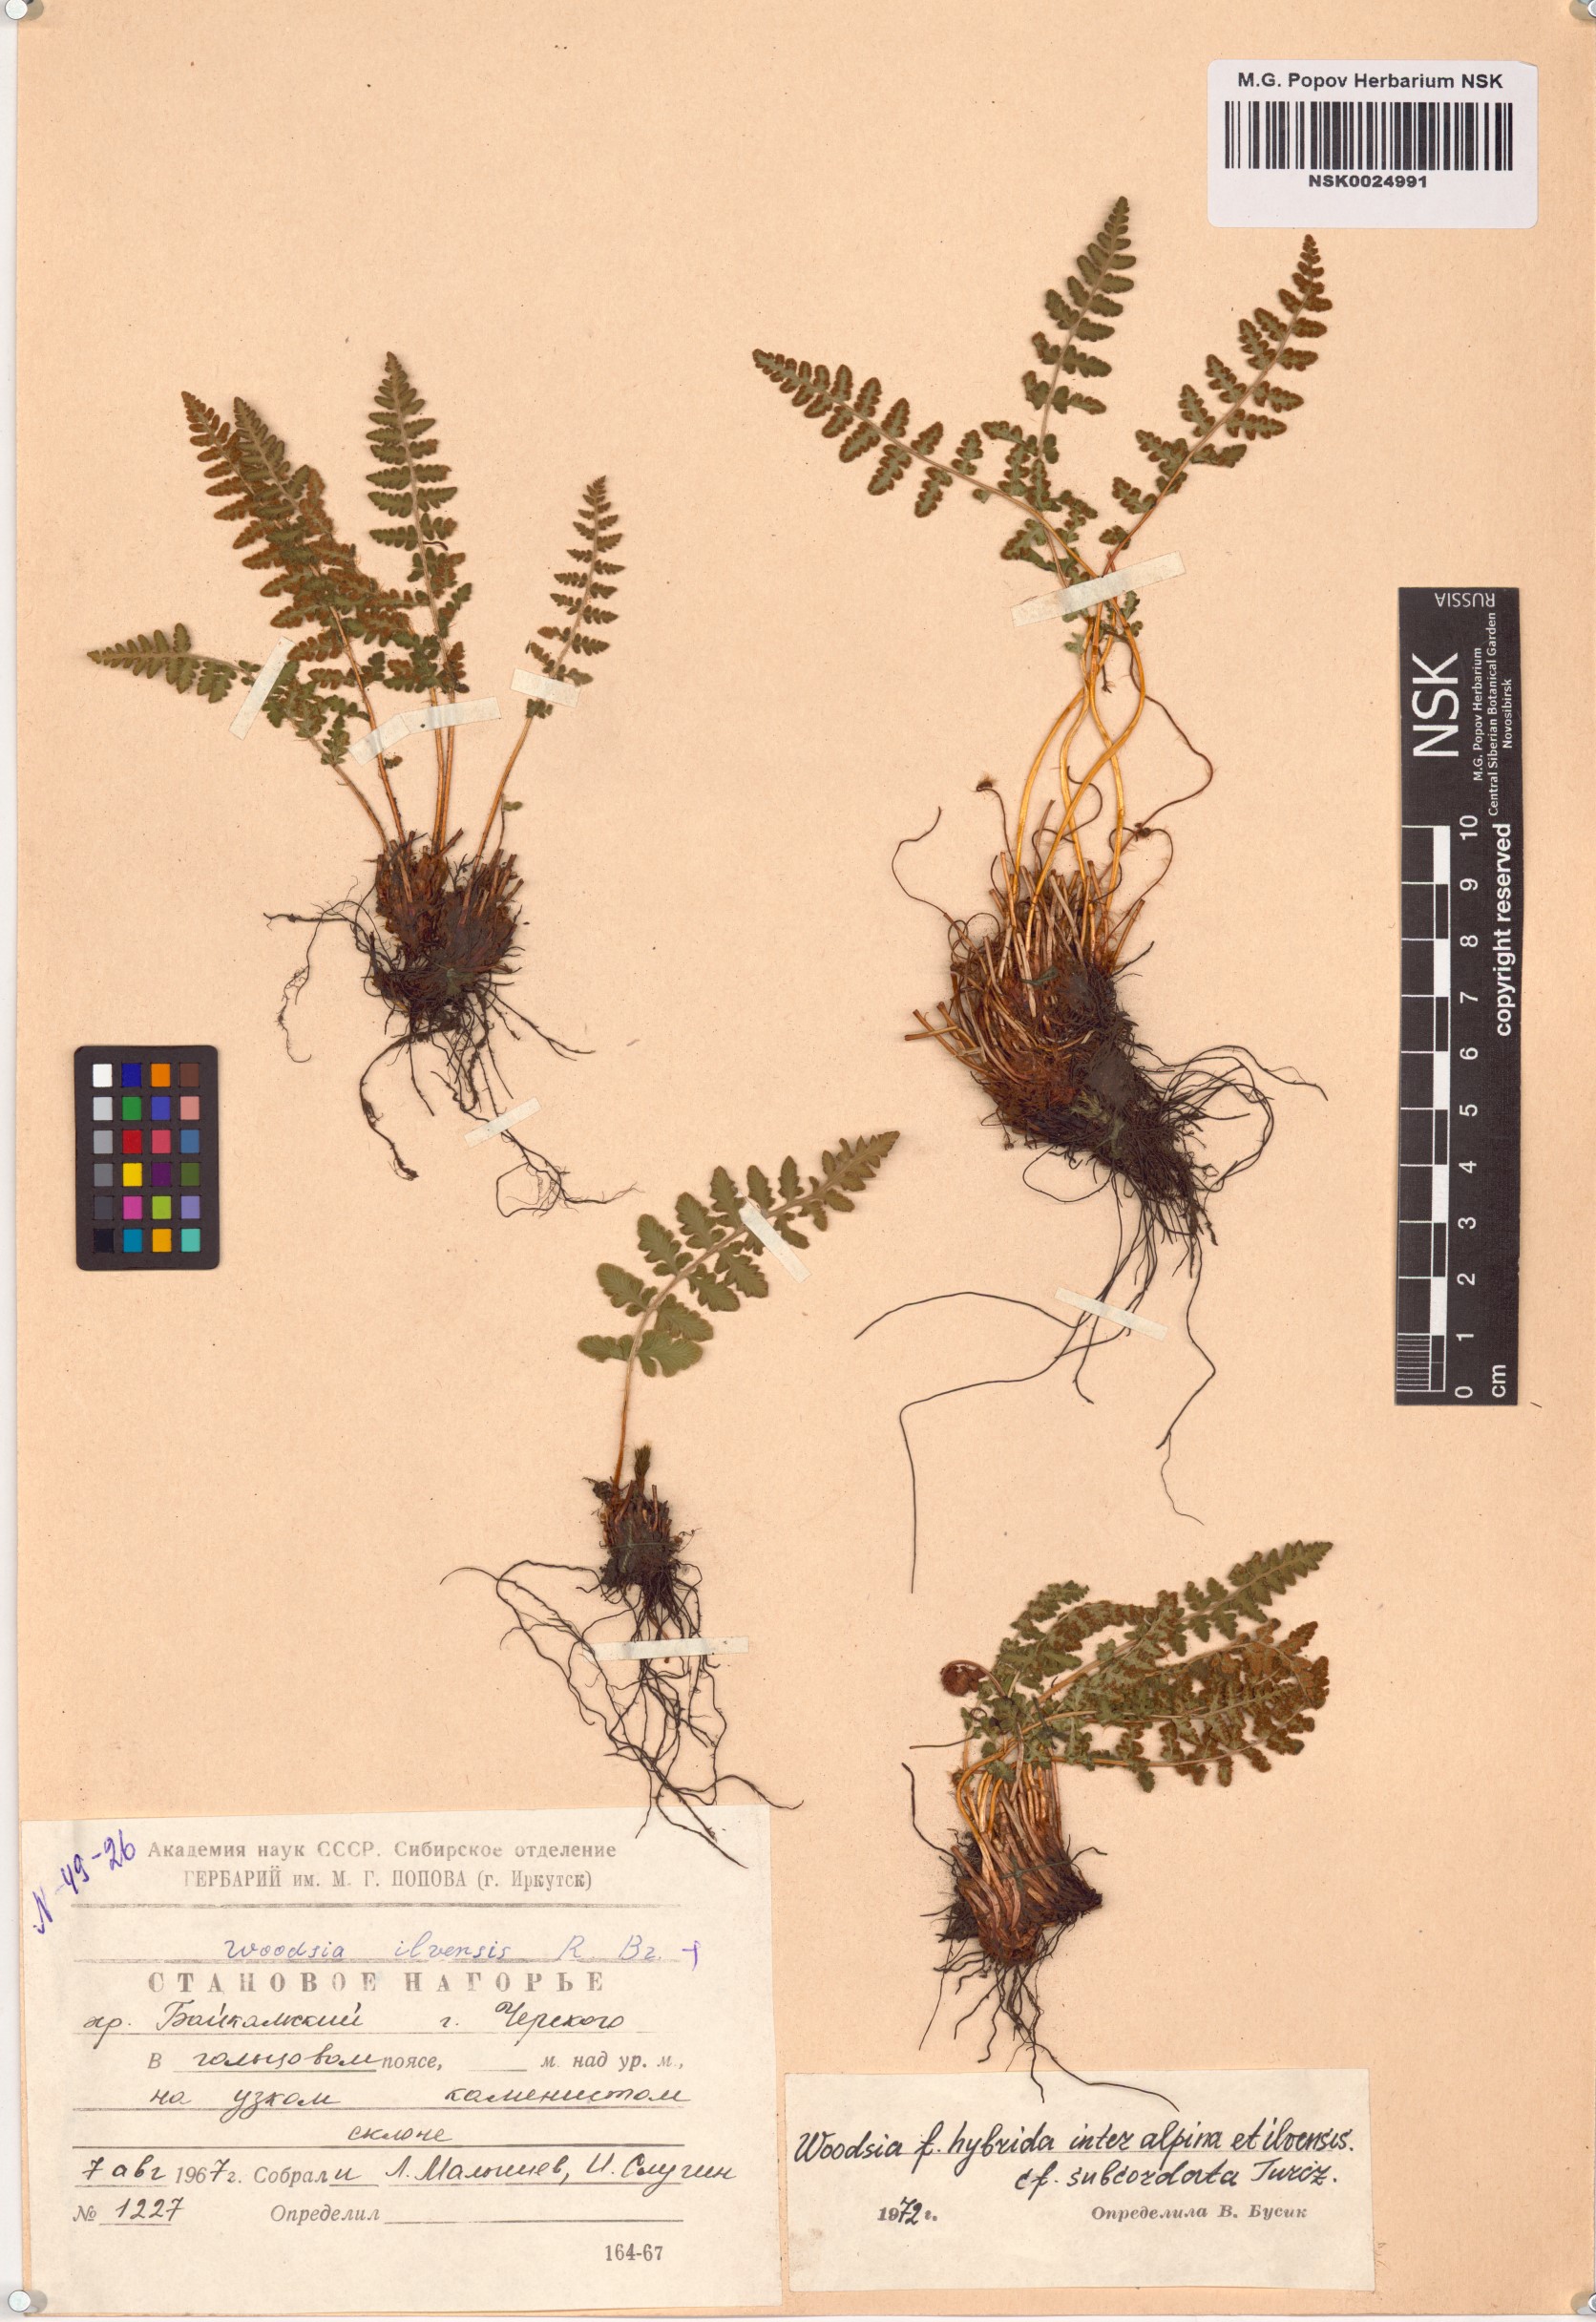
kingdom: Plantae
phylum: Tracheophyta
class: Polypodiopsida
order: Polypodiales
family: Woodsiaceae
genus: Woodsia
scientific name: Woodsia ilvensis
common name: Fragrant woodsia
